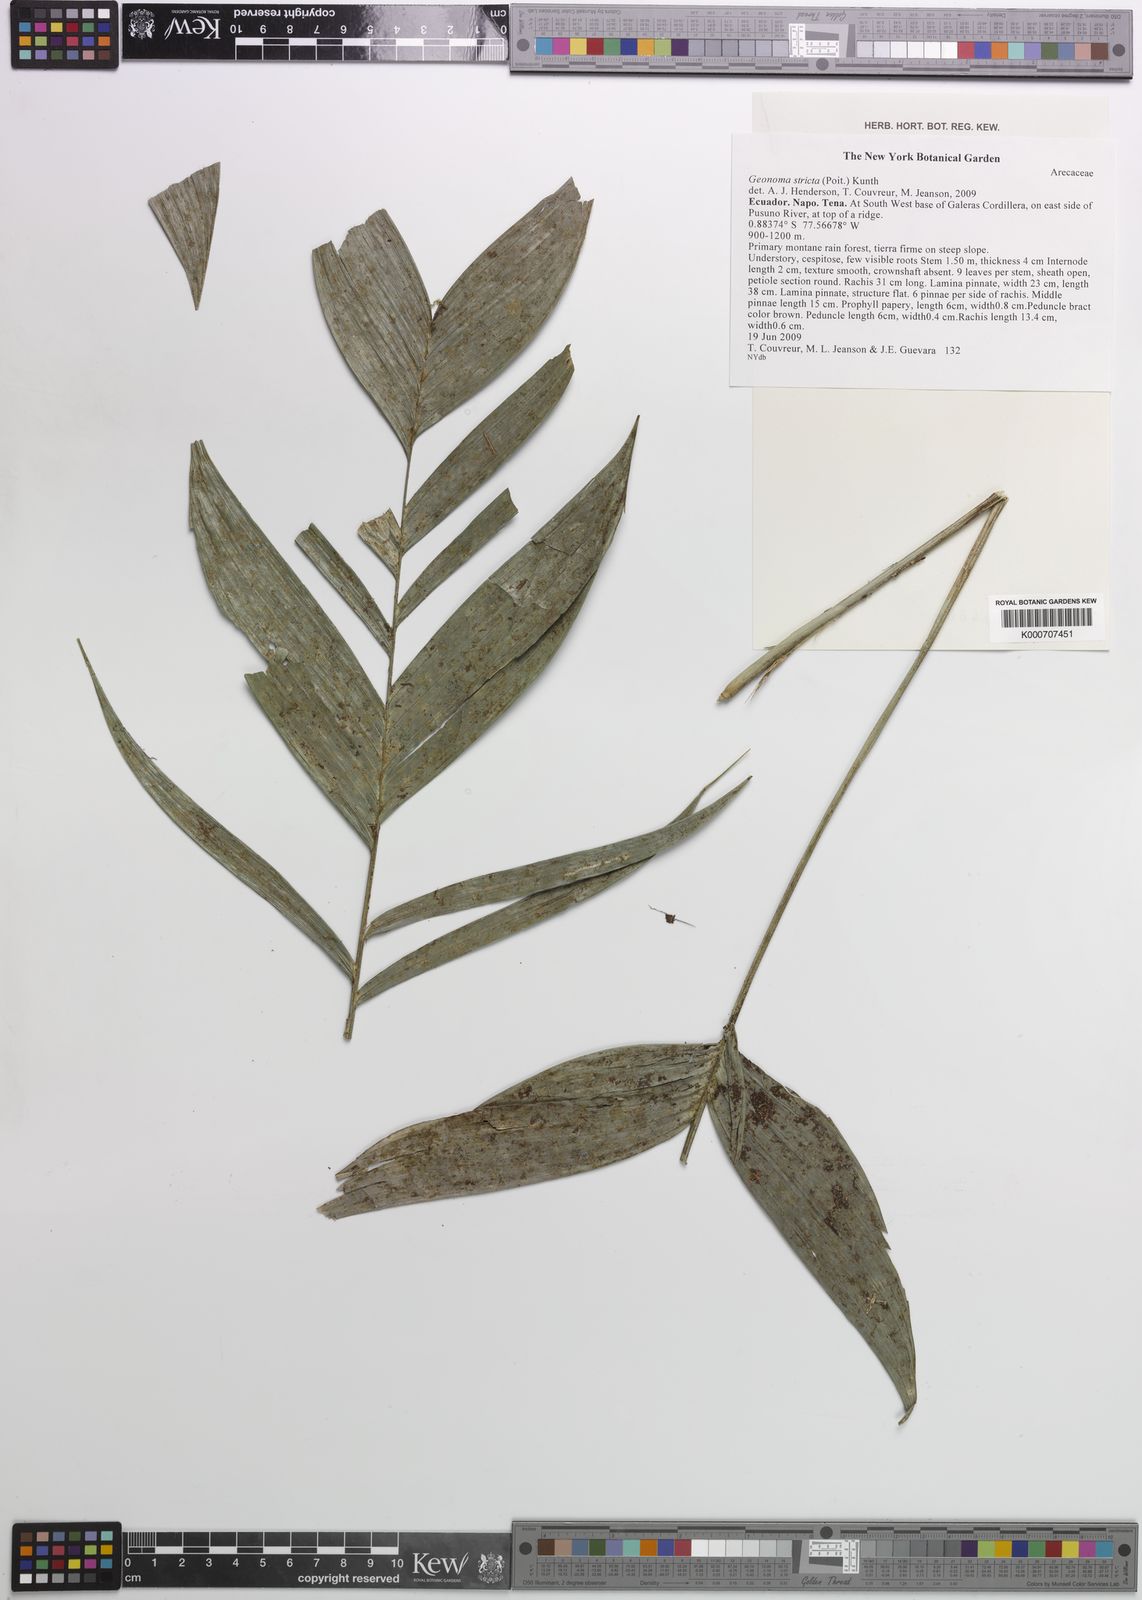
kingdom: Plantae
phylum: Tracheophyta
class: Liliopsida
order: Arecales
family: Arecaceae
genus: Geonoma
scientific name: Geonoma stricta
